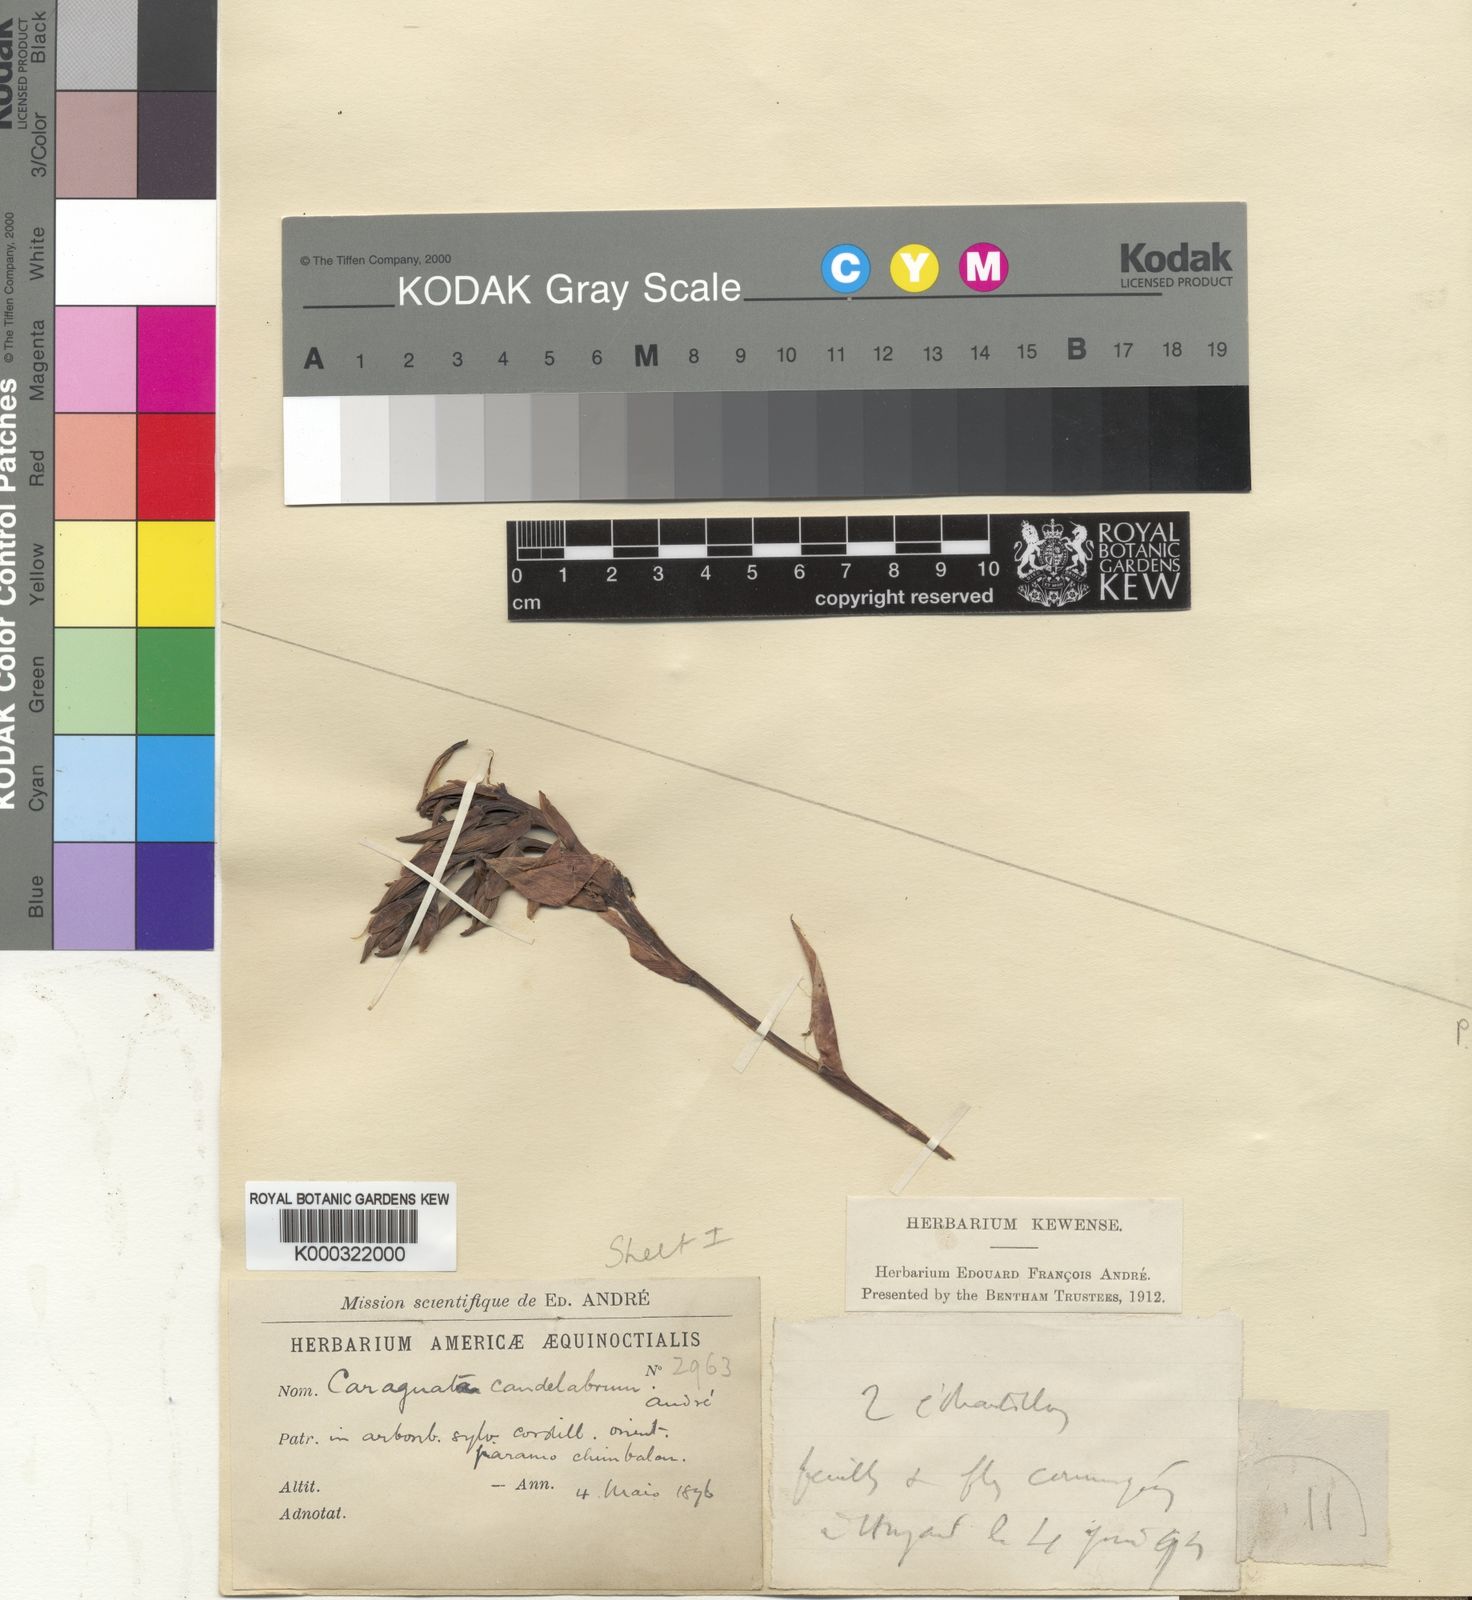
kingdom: Plantae
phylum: Tracheophyta
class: Liliopsida
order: Poales
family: Bromeliaceae
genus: Guzmania
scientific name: Guzmania candelabrum
